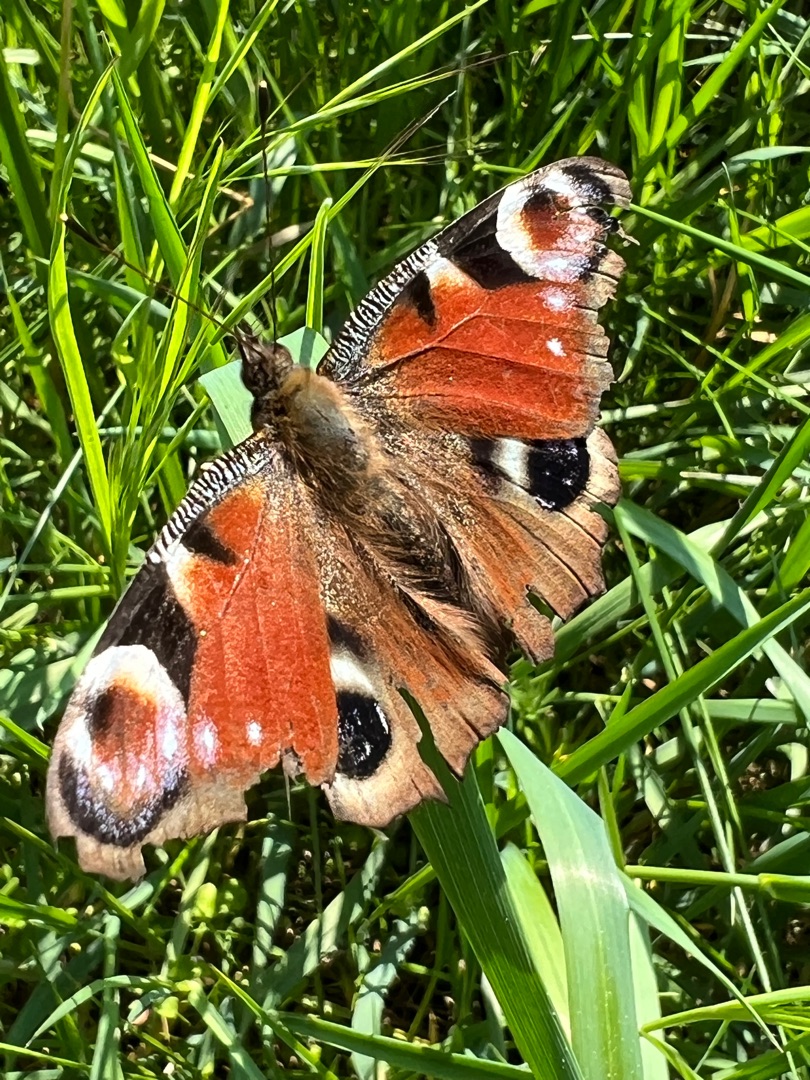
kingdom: Animalia
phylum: Arthropoda
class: Insecta
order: Lepidoptera
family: Nymphalidae
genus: Aglais
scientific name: Aglais io
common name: Dagpåfugleøje
